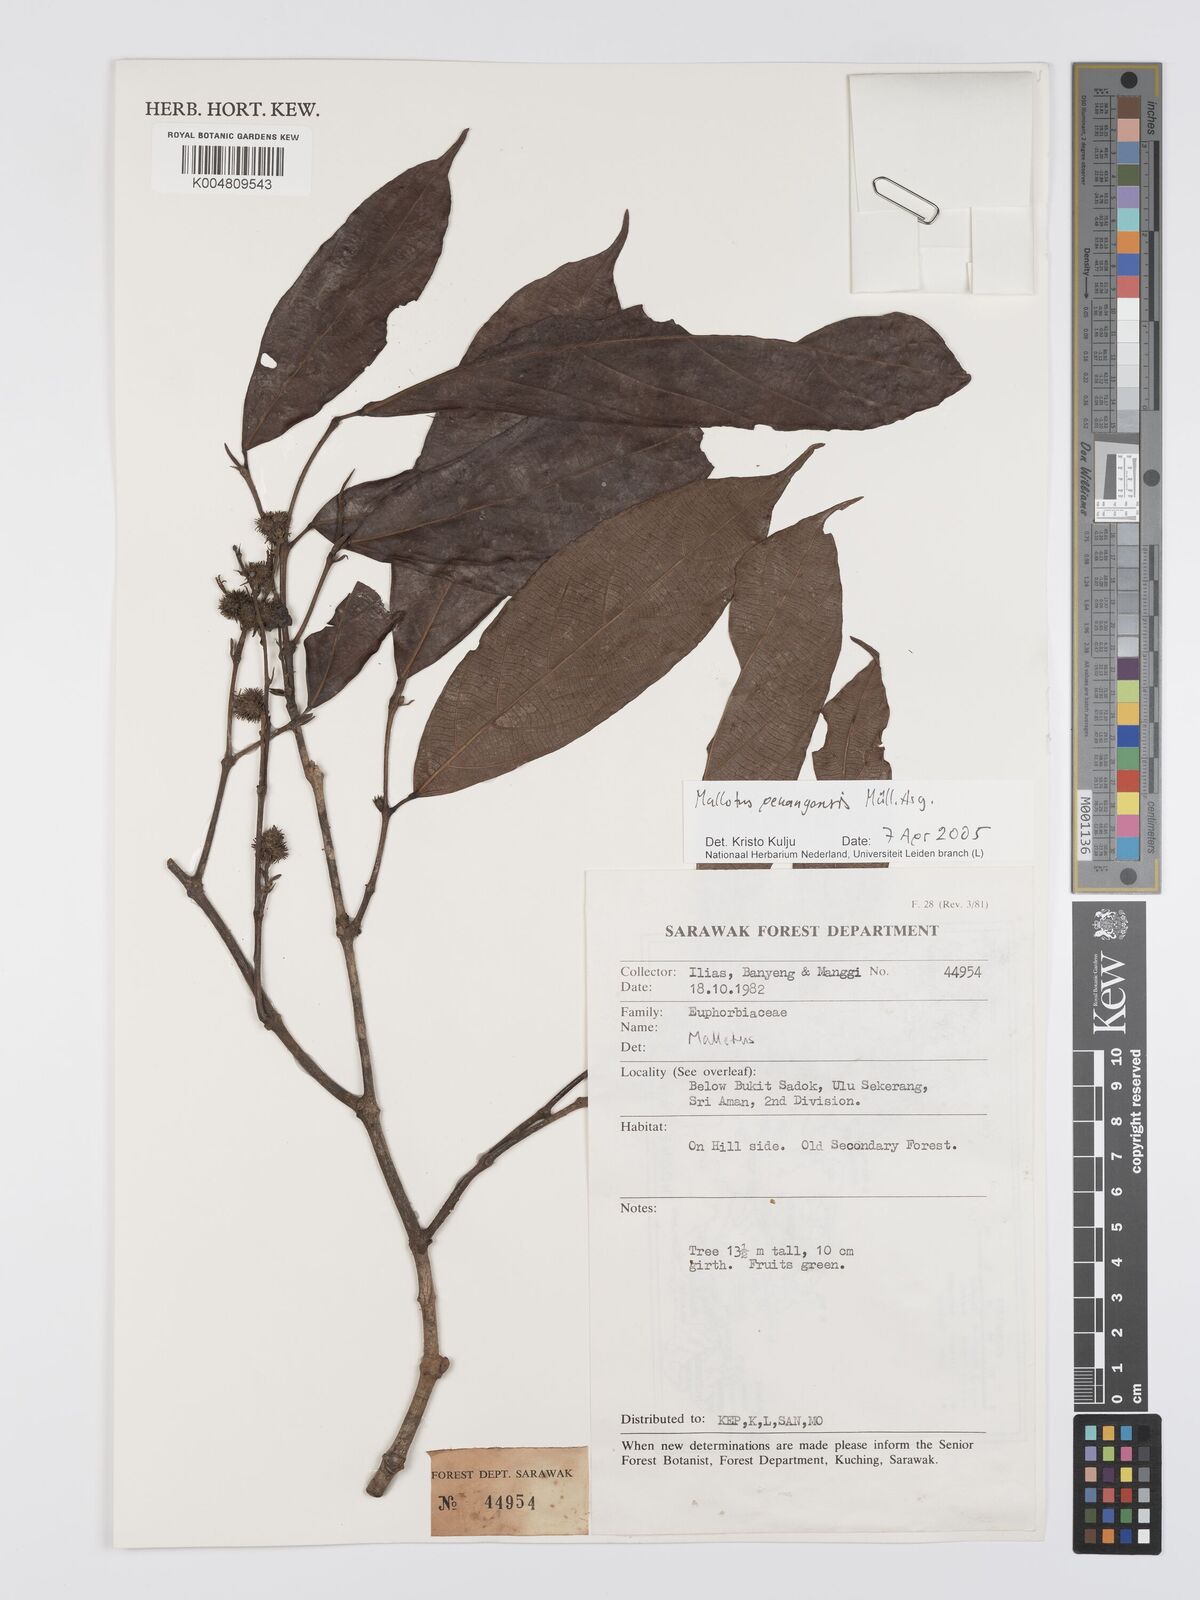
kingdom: Plantae
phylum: Tracheophyta
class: Magnoliopsida
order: Malpighiales
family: Euphorbiaceae
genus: Hancea
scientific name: Hancea penangensis
